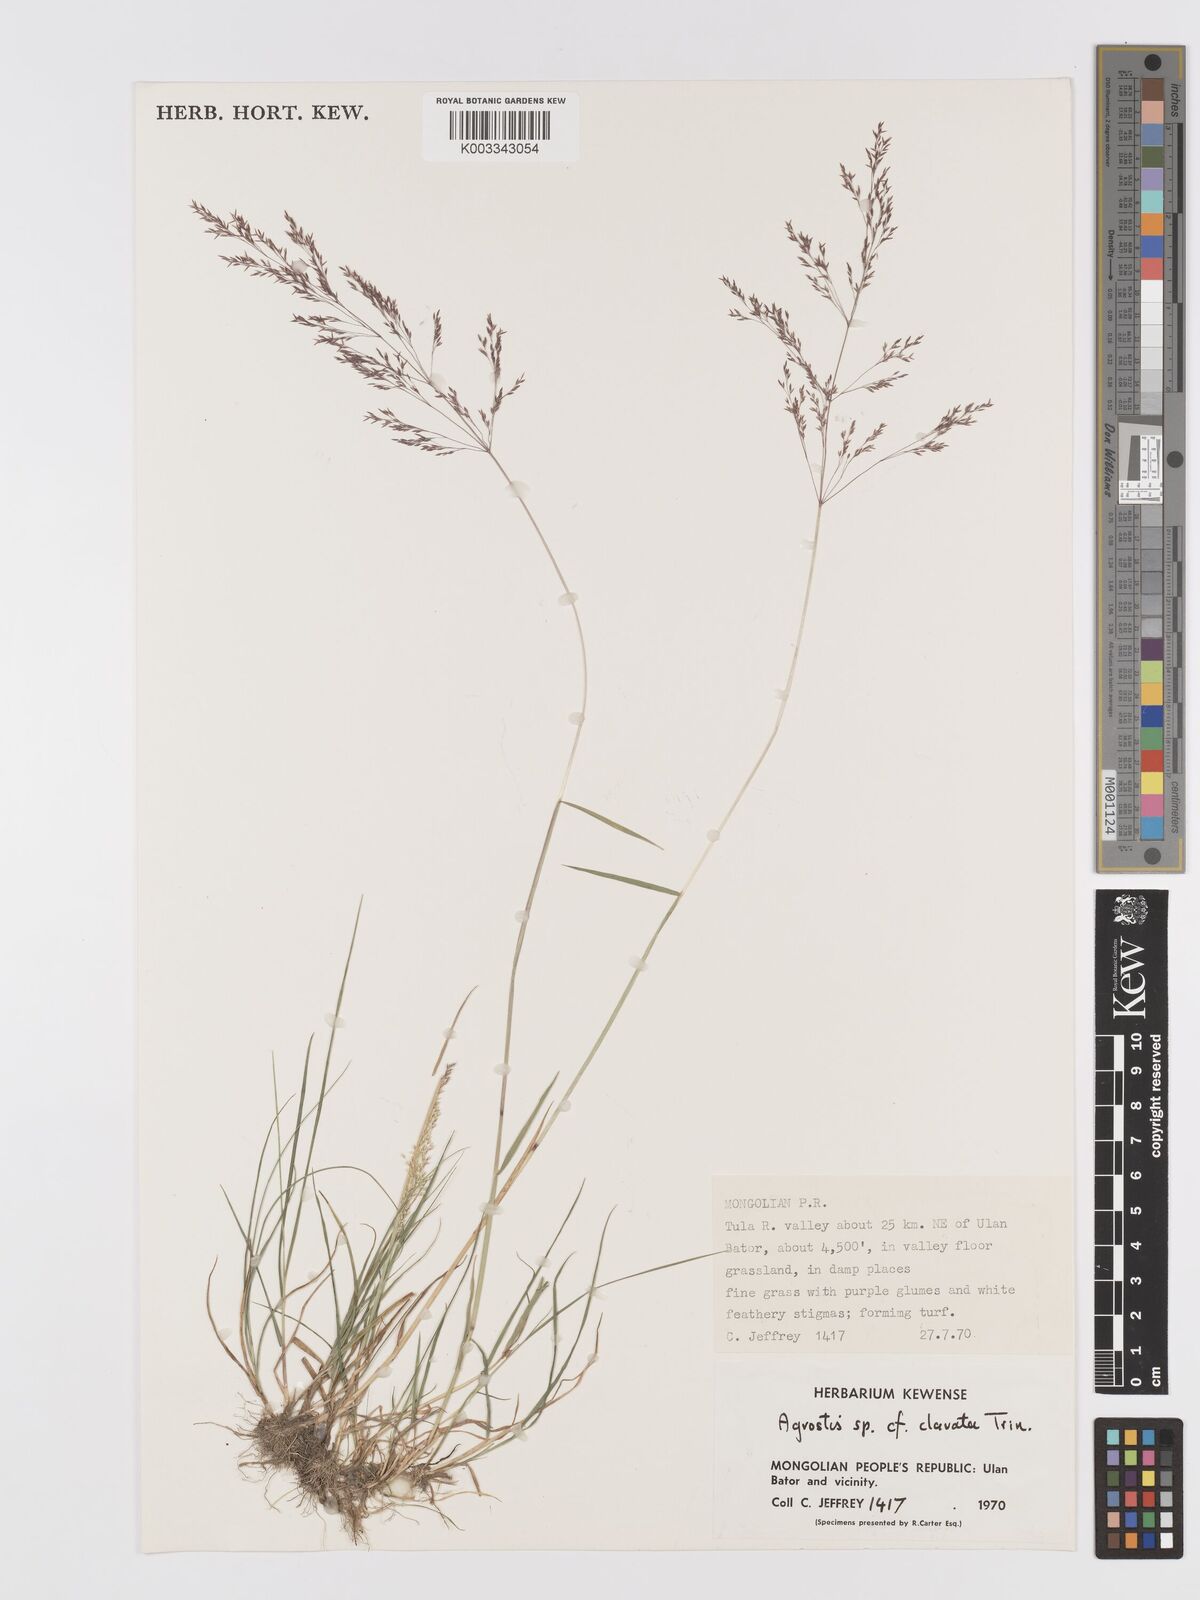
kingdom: Plantae
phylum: Tracheophyta
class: Liliopsida
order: Poales
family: Poaceae
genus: Agrostis
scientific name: Agrostis
